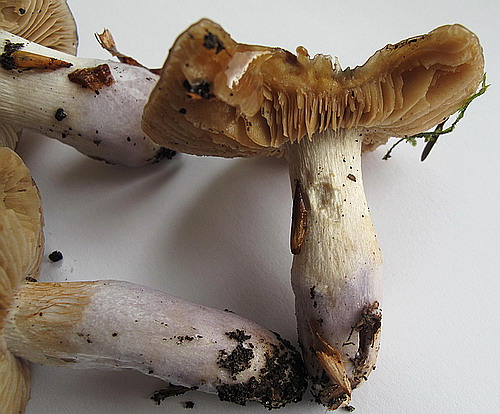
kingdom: Fungi
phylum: Basidiomycota
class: Agaricomycetes
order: Agaricales
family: Cortinariaceae
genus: Cortinarius
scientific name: Cortinarius elatior
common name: høj slørhat
